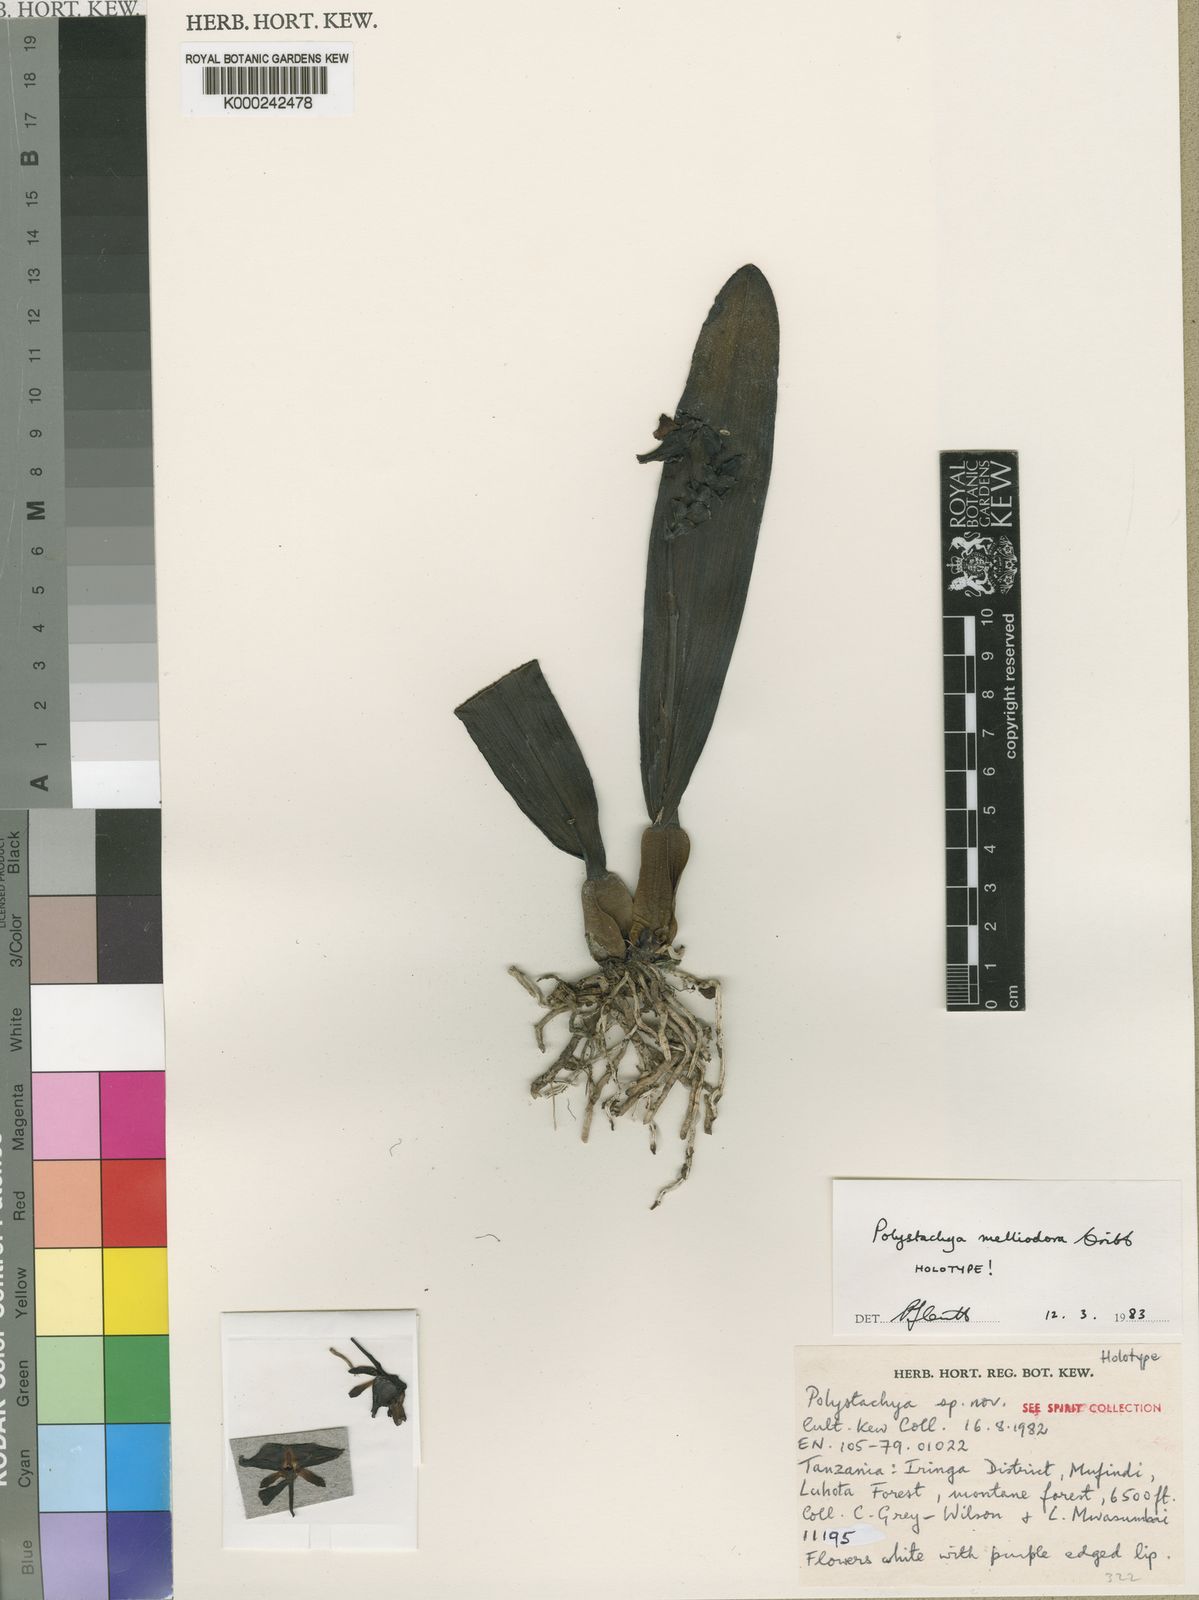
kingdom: Plantae
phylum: Tracheophyta
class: Liliopsida
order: Asparagales
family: Orchidaceae
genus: Polystachya
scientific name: Polystachya melliodora
